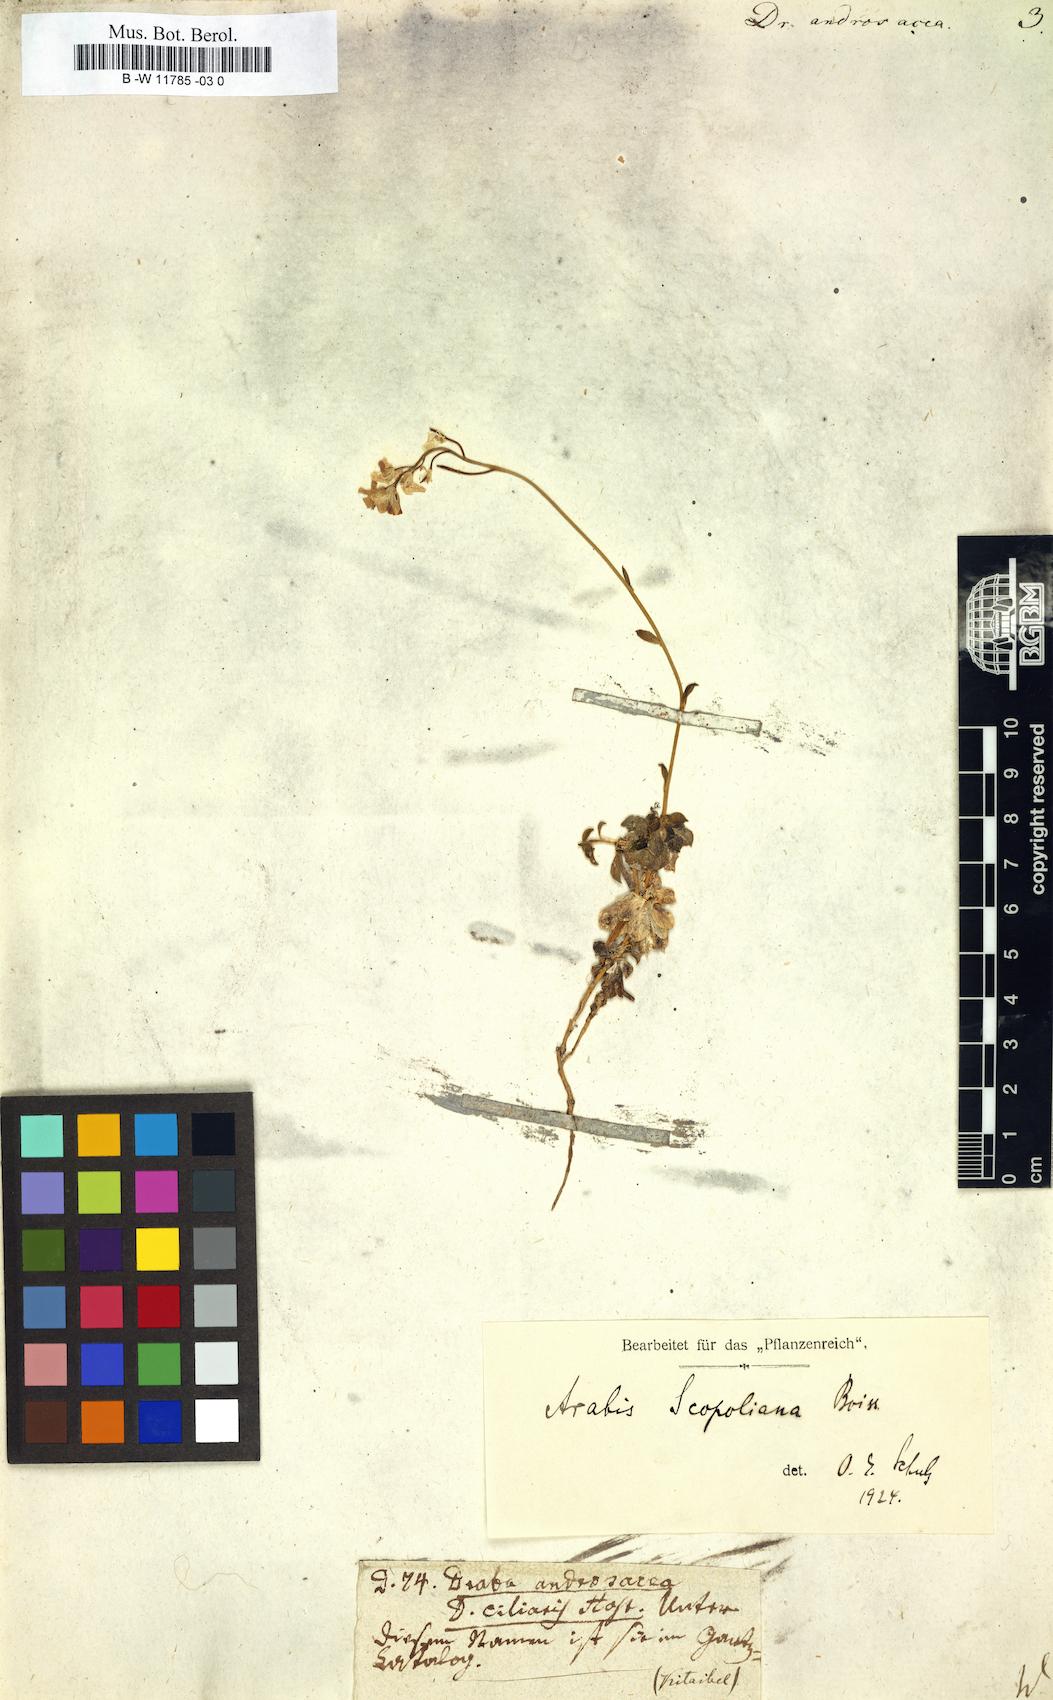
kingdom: Plantae
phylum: Tracheophyta
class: Magnoliopsida
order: Brassicales
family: Brassicaceae
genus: Draba
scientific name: Draba
